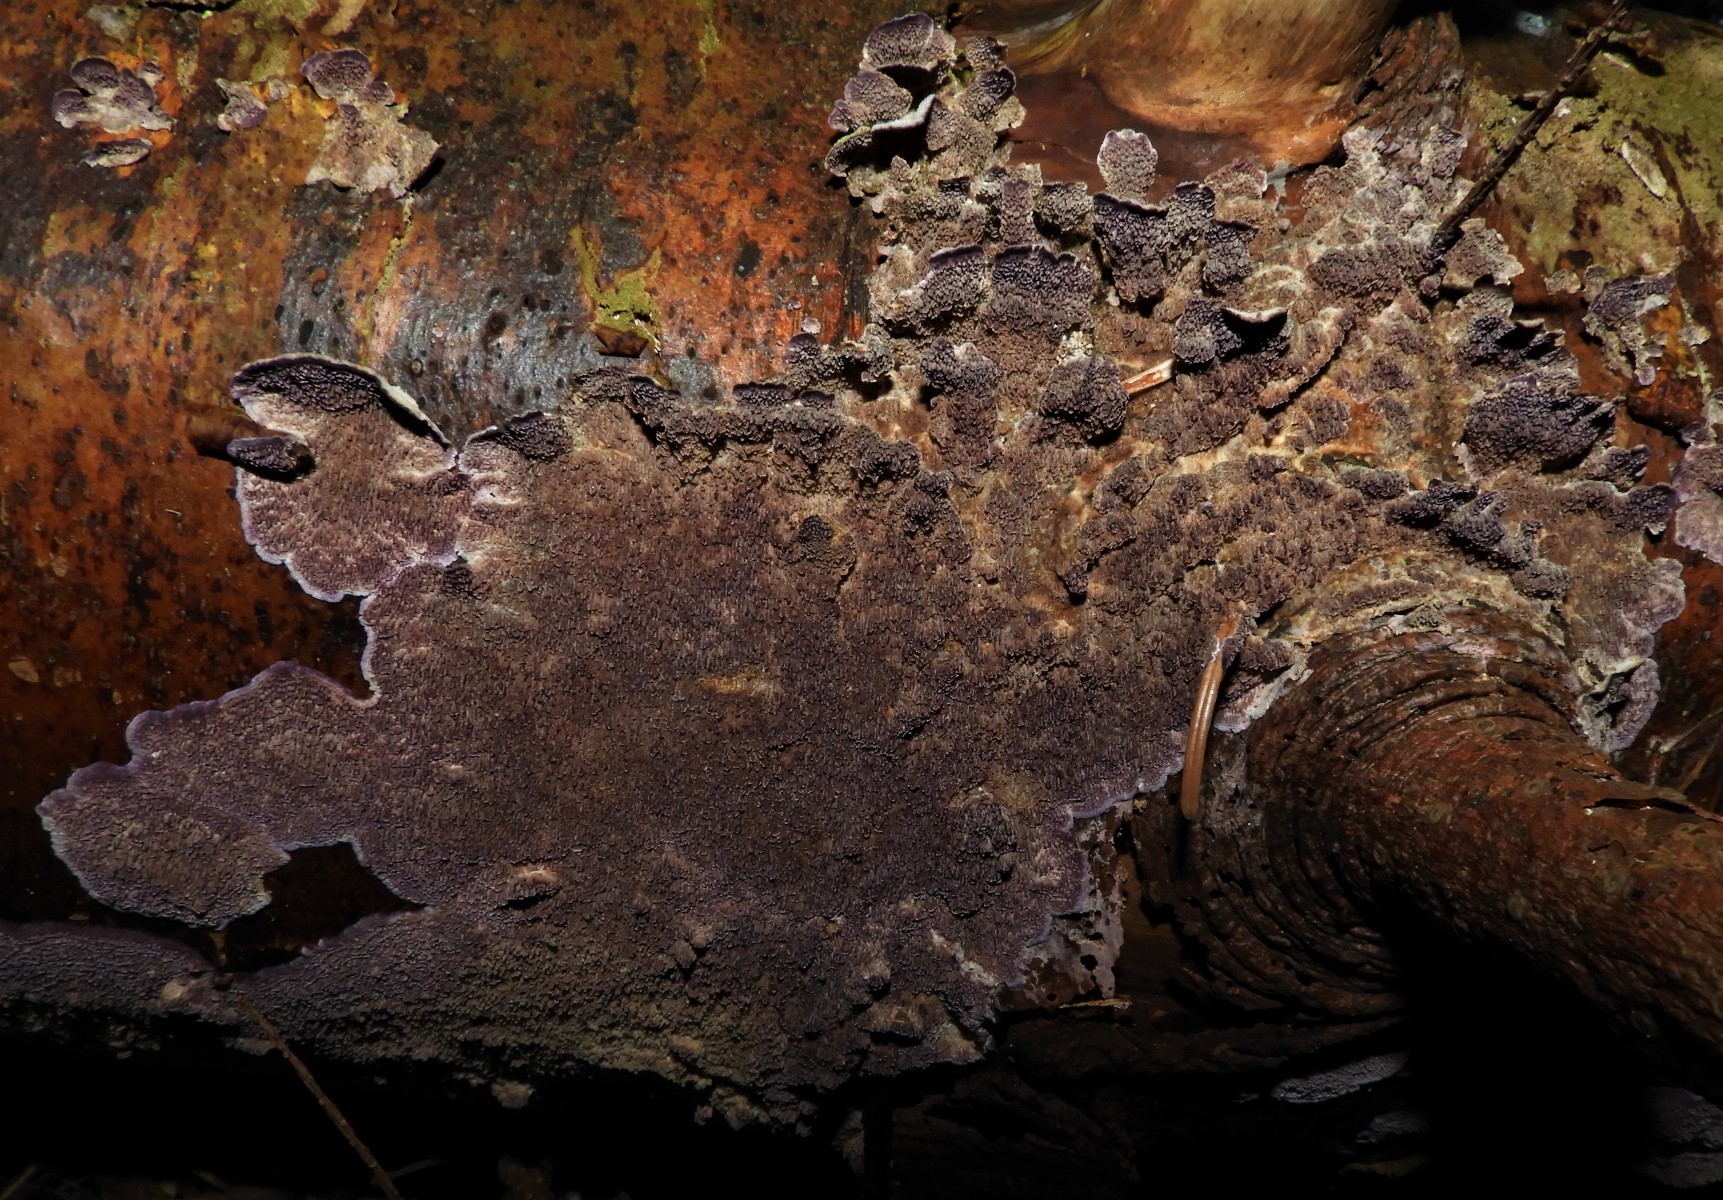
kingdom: Fungi
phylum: Basidiomycota
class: Agaricomycetes
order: Agaricales
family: Cyphellaceae
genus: Chondrostereum
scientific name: Chondrostereum purpureum
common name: purpurlædersvamp
